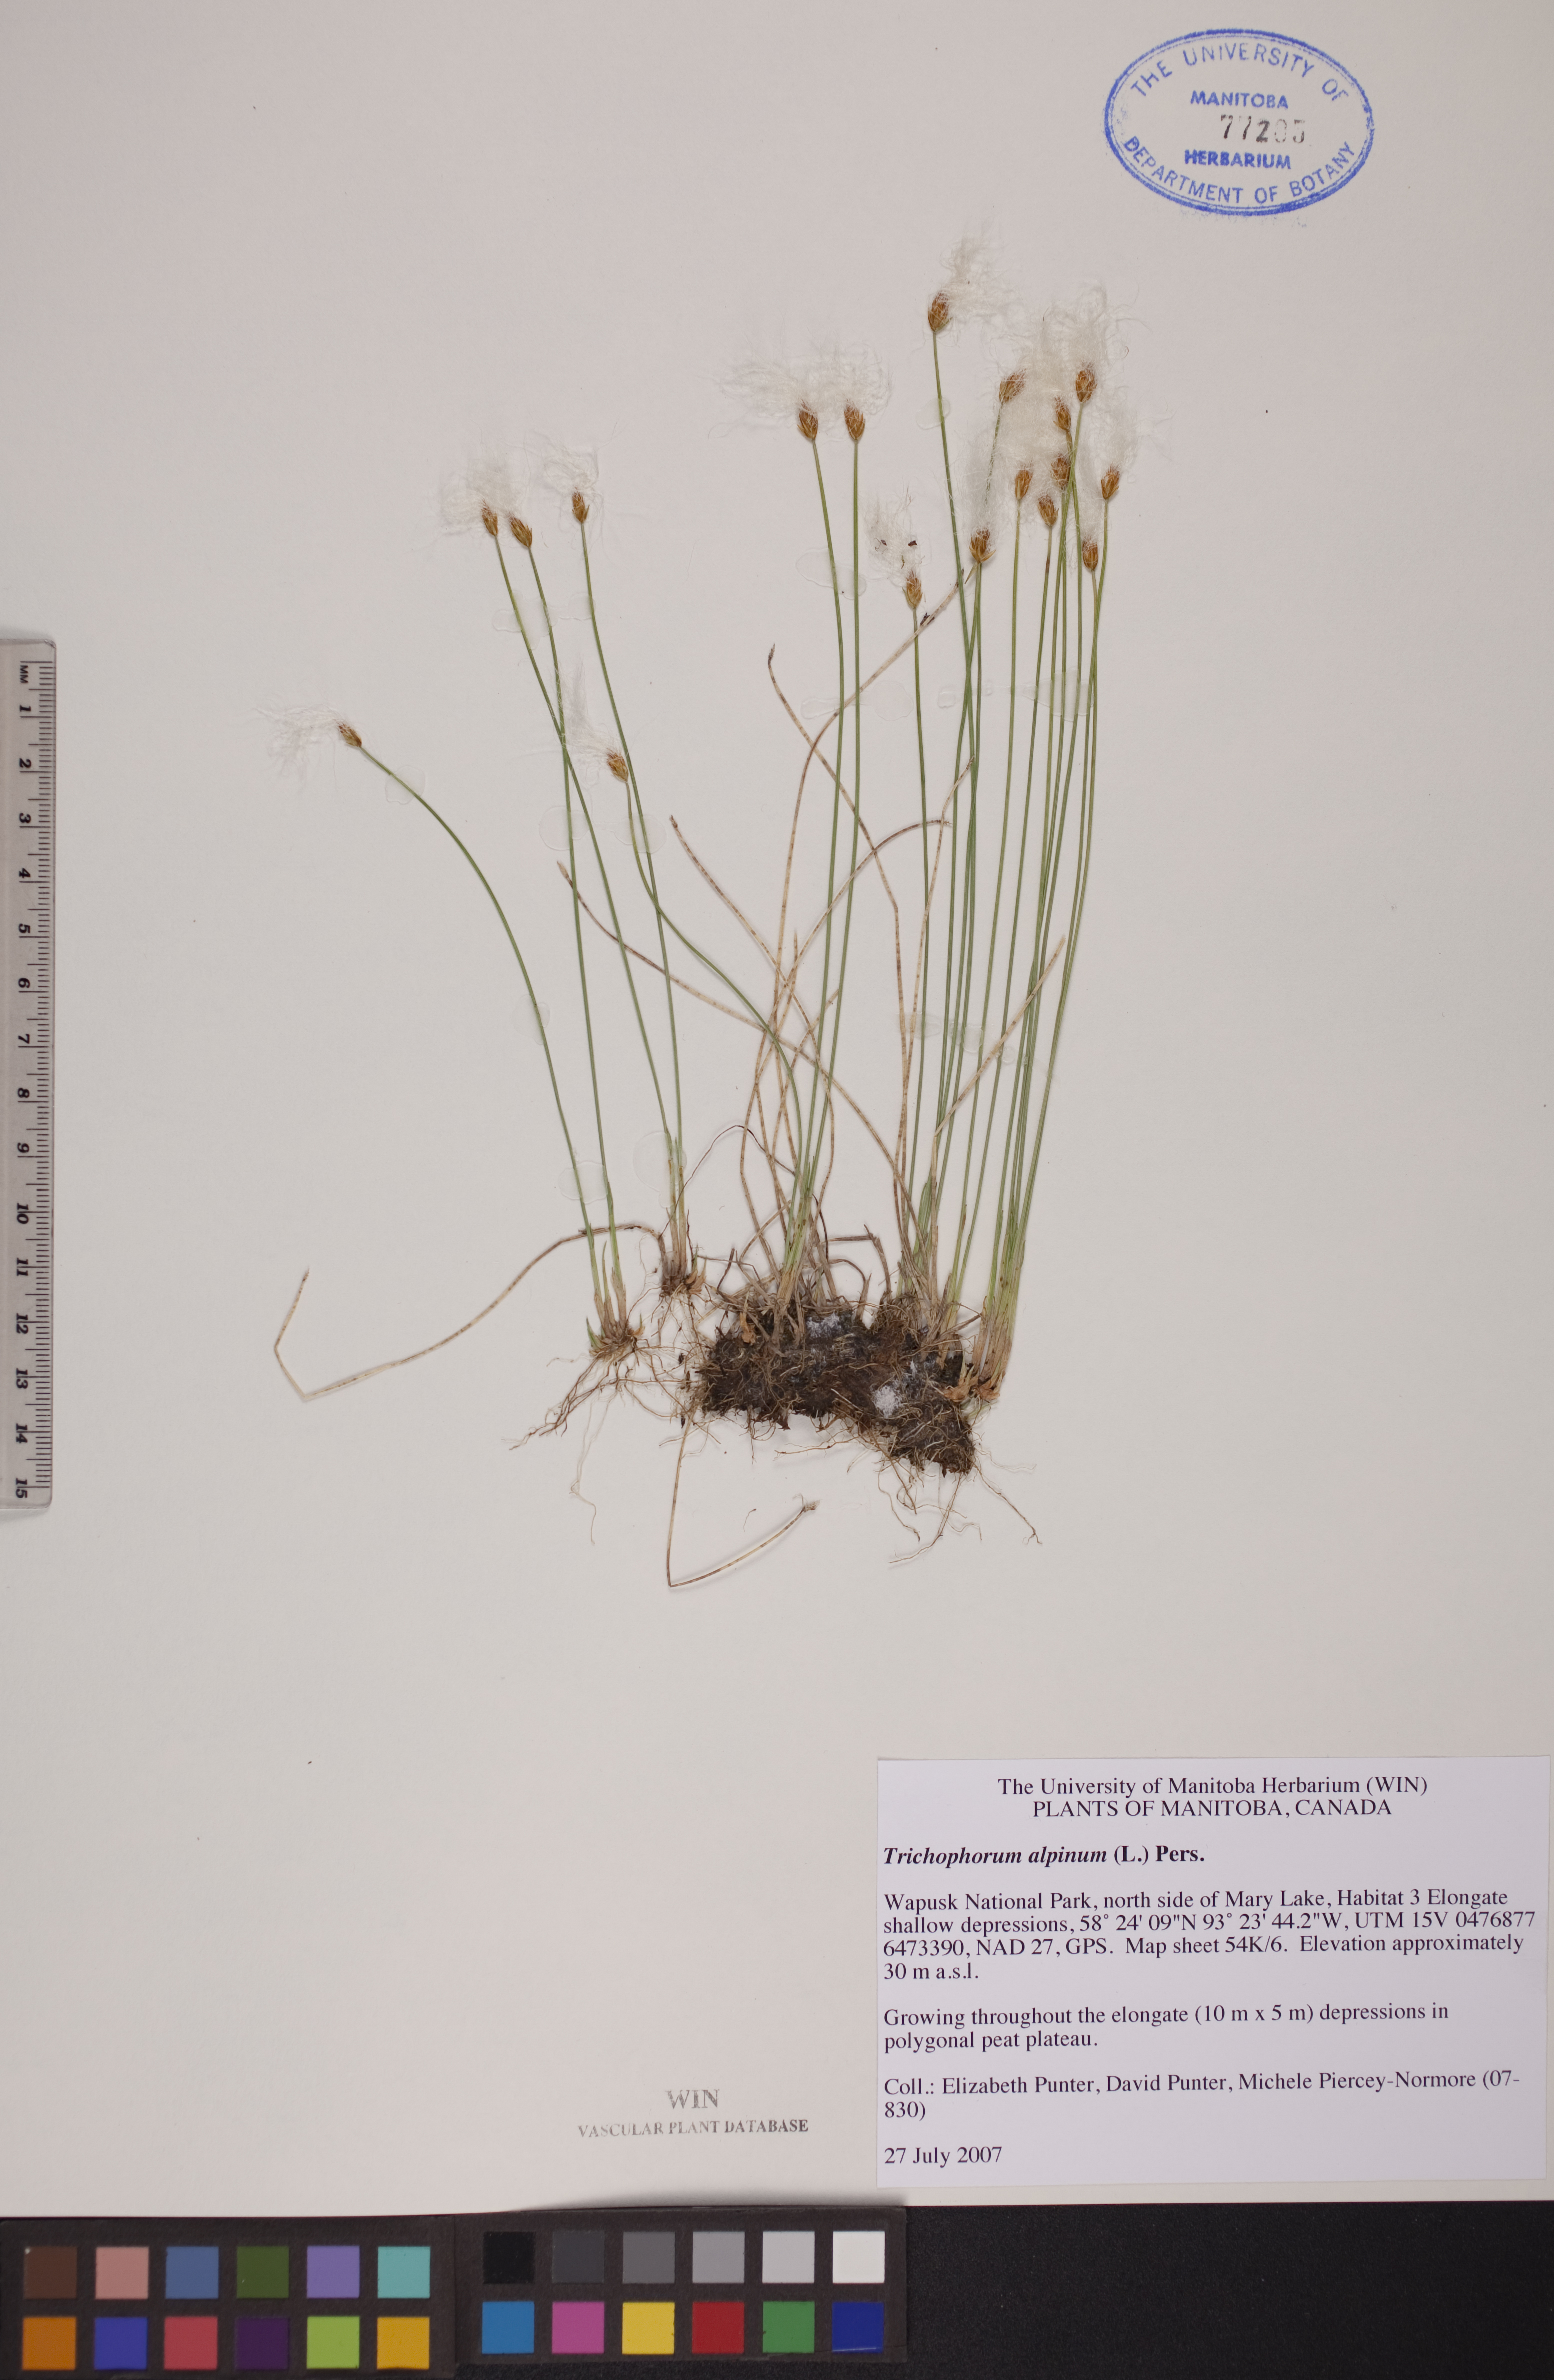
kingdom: Plantae
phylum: Tracheophyta
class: Liliopsida
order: Poales
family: Cyperaceae
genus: Trichophorum
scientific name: Trichophorum alpinum
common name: Alpine bulrush
